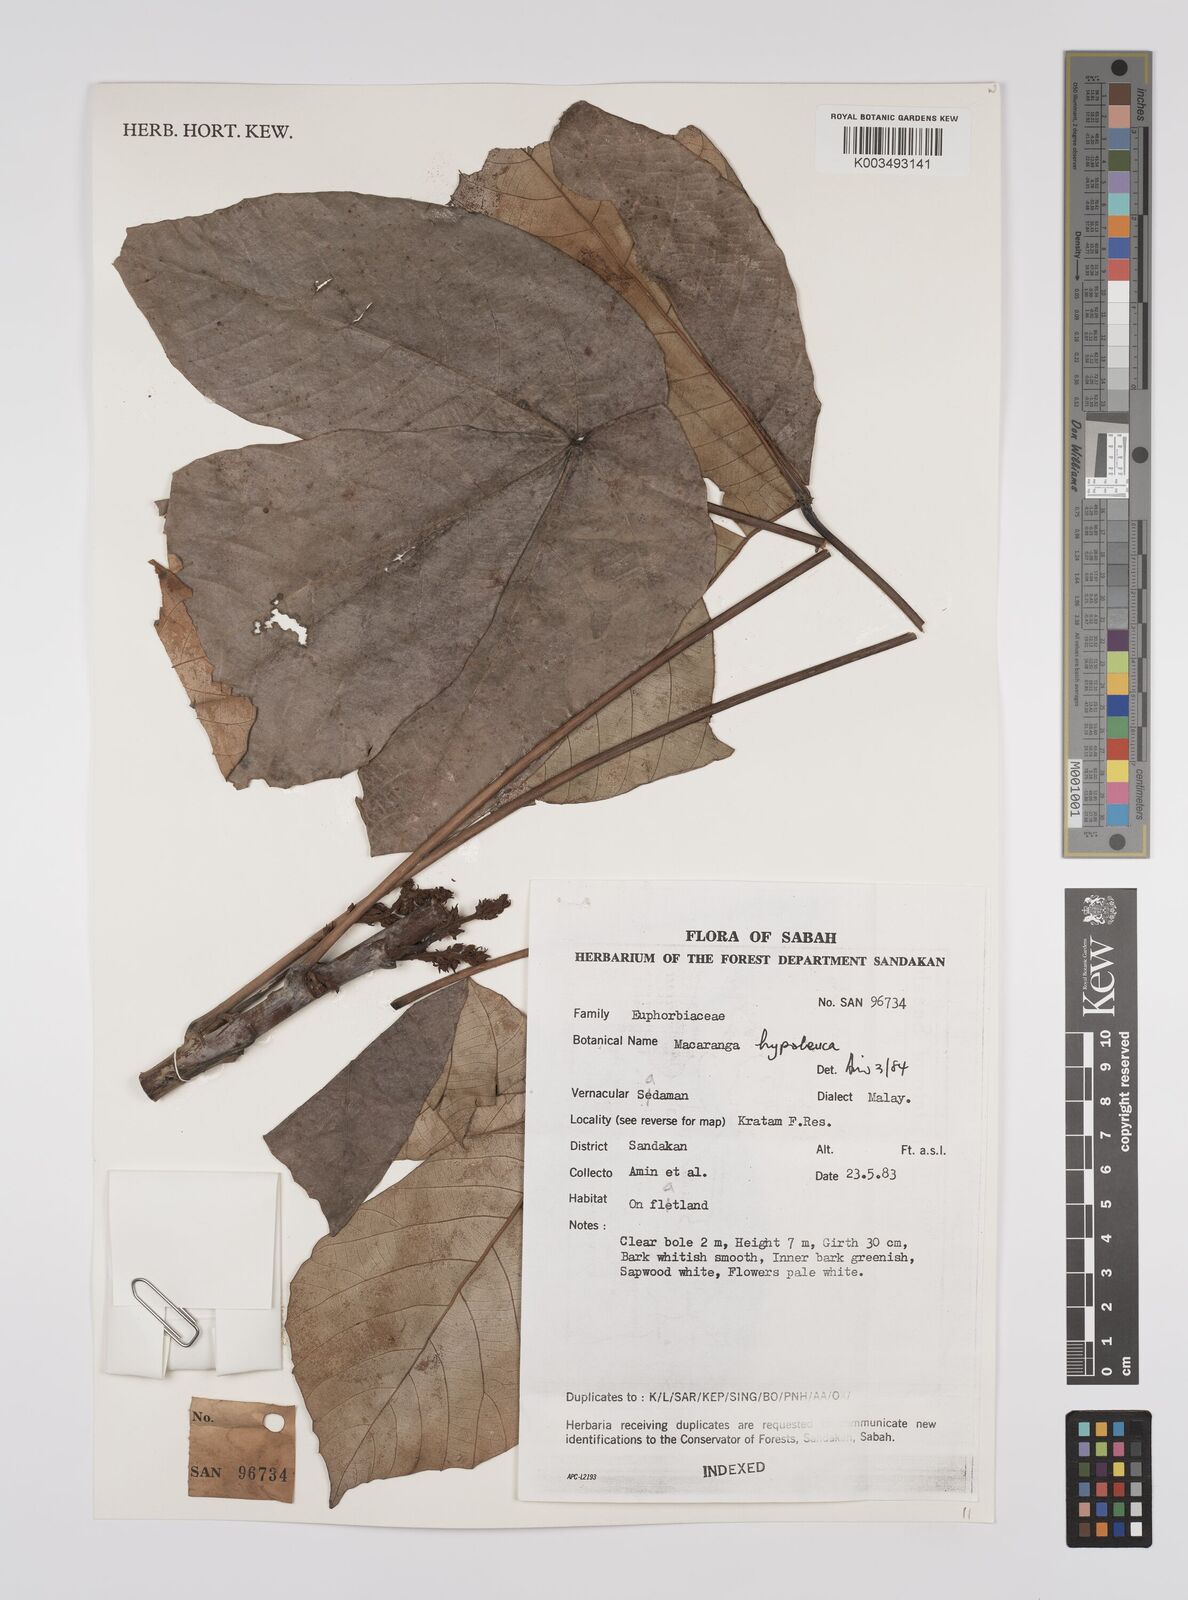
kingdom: Plantae
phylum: Tracheophyta
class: Magnoliopsida
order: Malpighiales
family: Euphorbiaceae
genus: Macaranga
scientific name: Macaranga hypoleuca
